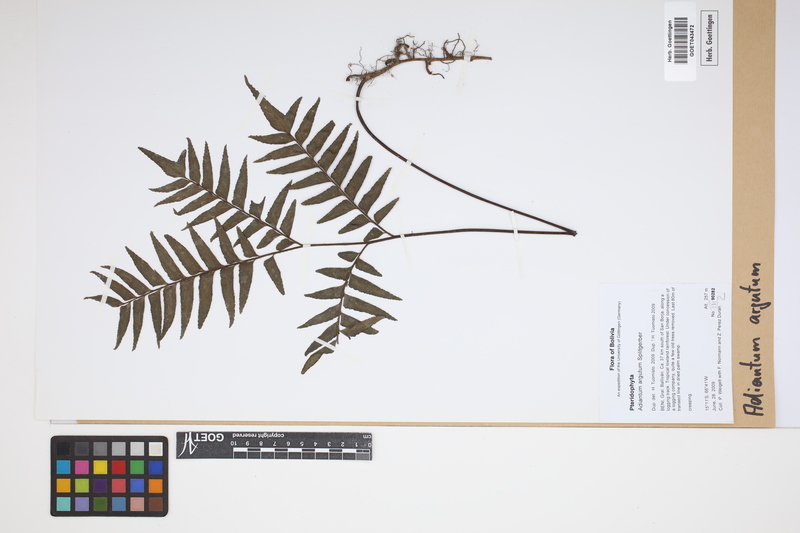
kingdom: Plantae
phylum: Tracheophyta
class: Polypodiopsida
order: Polypodiales
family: Pteridaceae
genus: Adiantum
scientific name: Adiantum argutum
